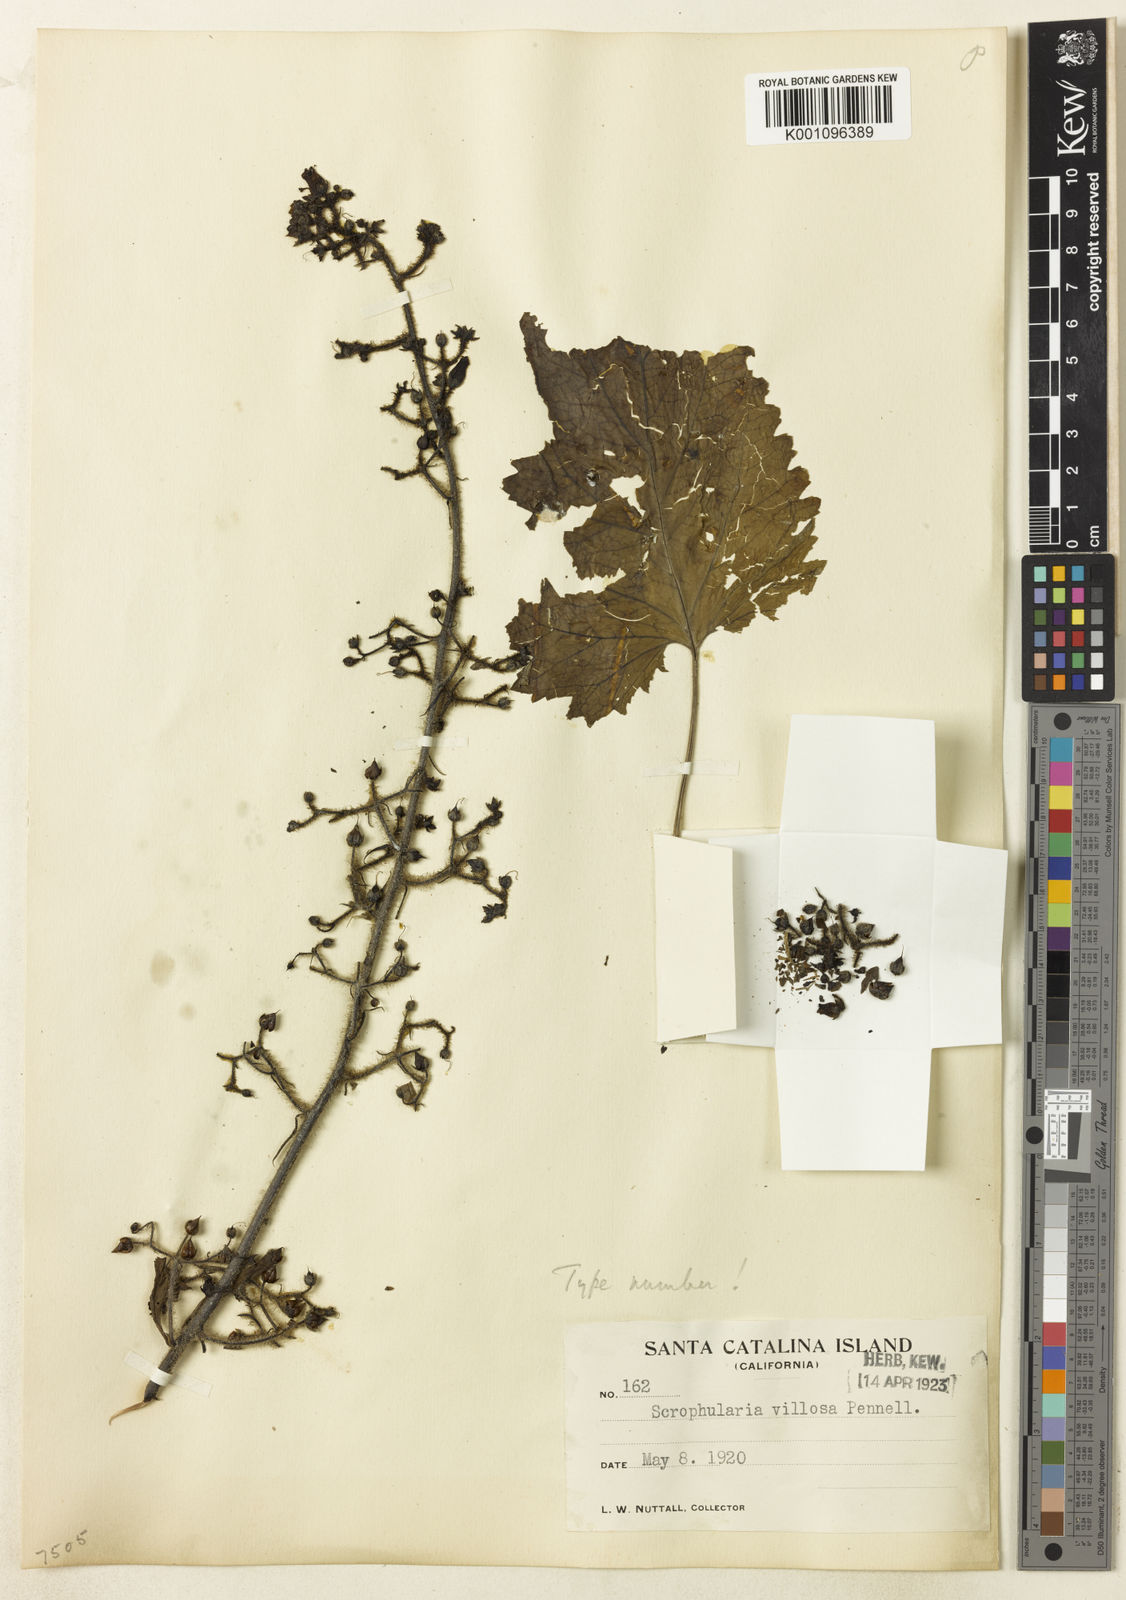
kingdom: Plantae
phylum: Tracheophyta
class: Magnoliopsida
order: Lamiales
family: Scrophulariaceae
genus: Scrophularia
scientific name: Scrophularia villosa
